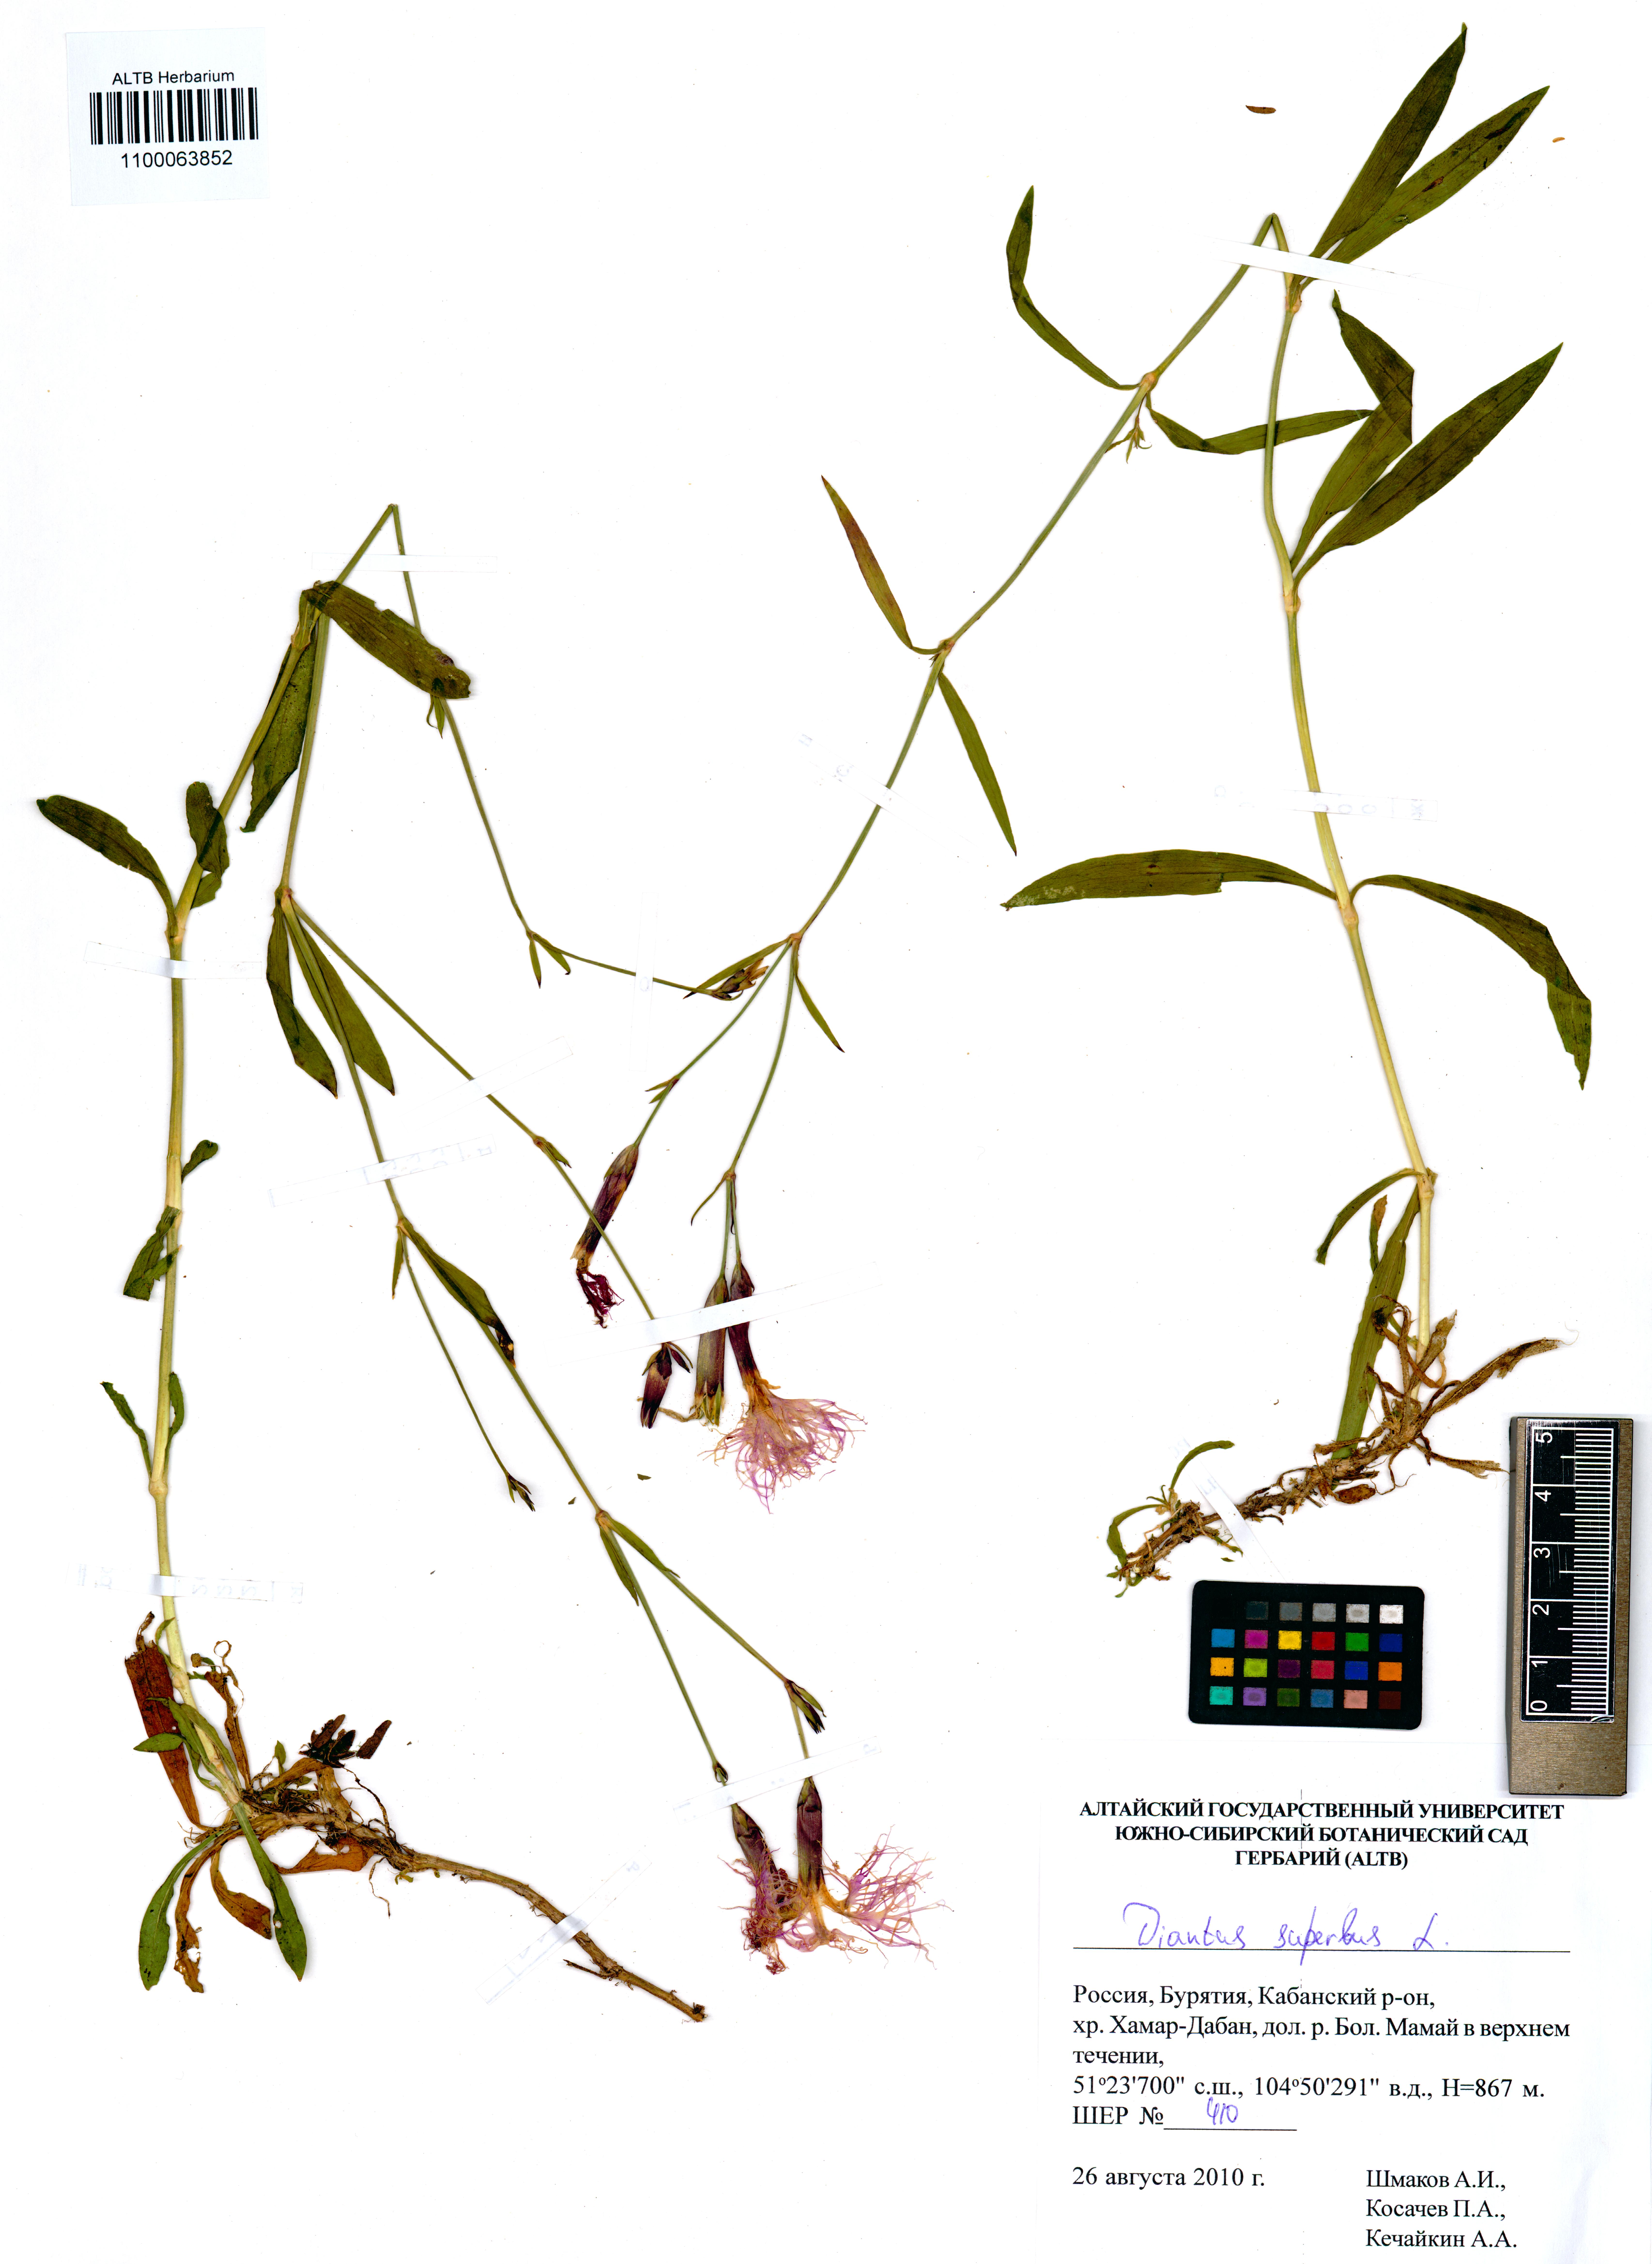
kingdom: Plantae
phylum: Tracheophyta
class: Magnoliopsida
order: Caryophyllales
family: Caryophyllaceae
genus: Dianthus
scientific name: Dianthus superbus
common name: Fringed pink
